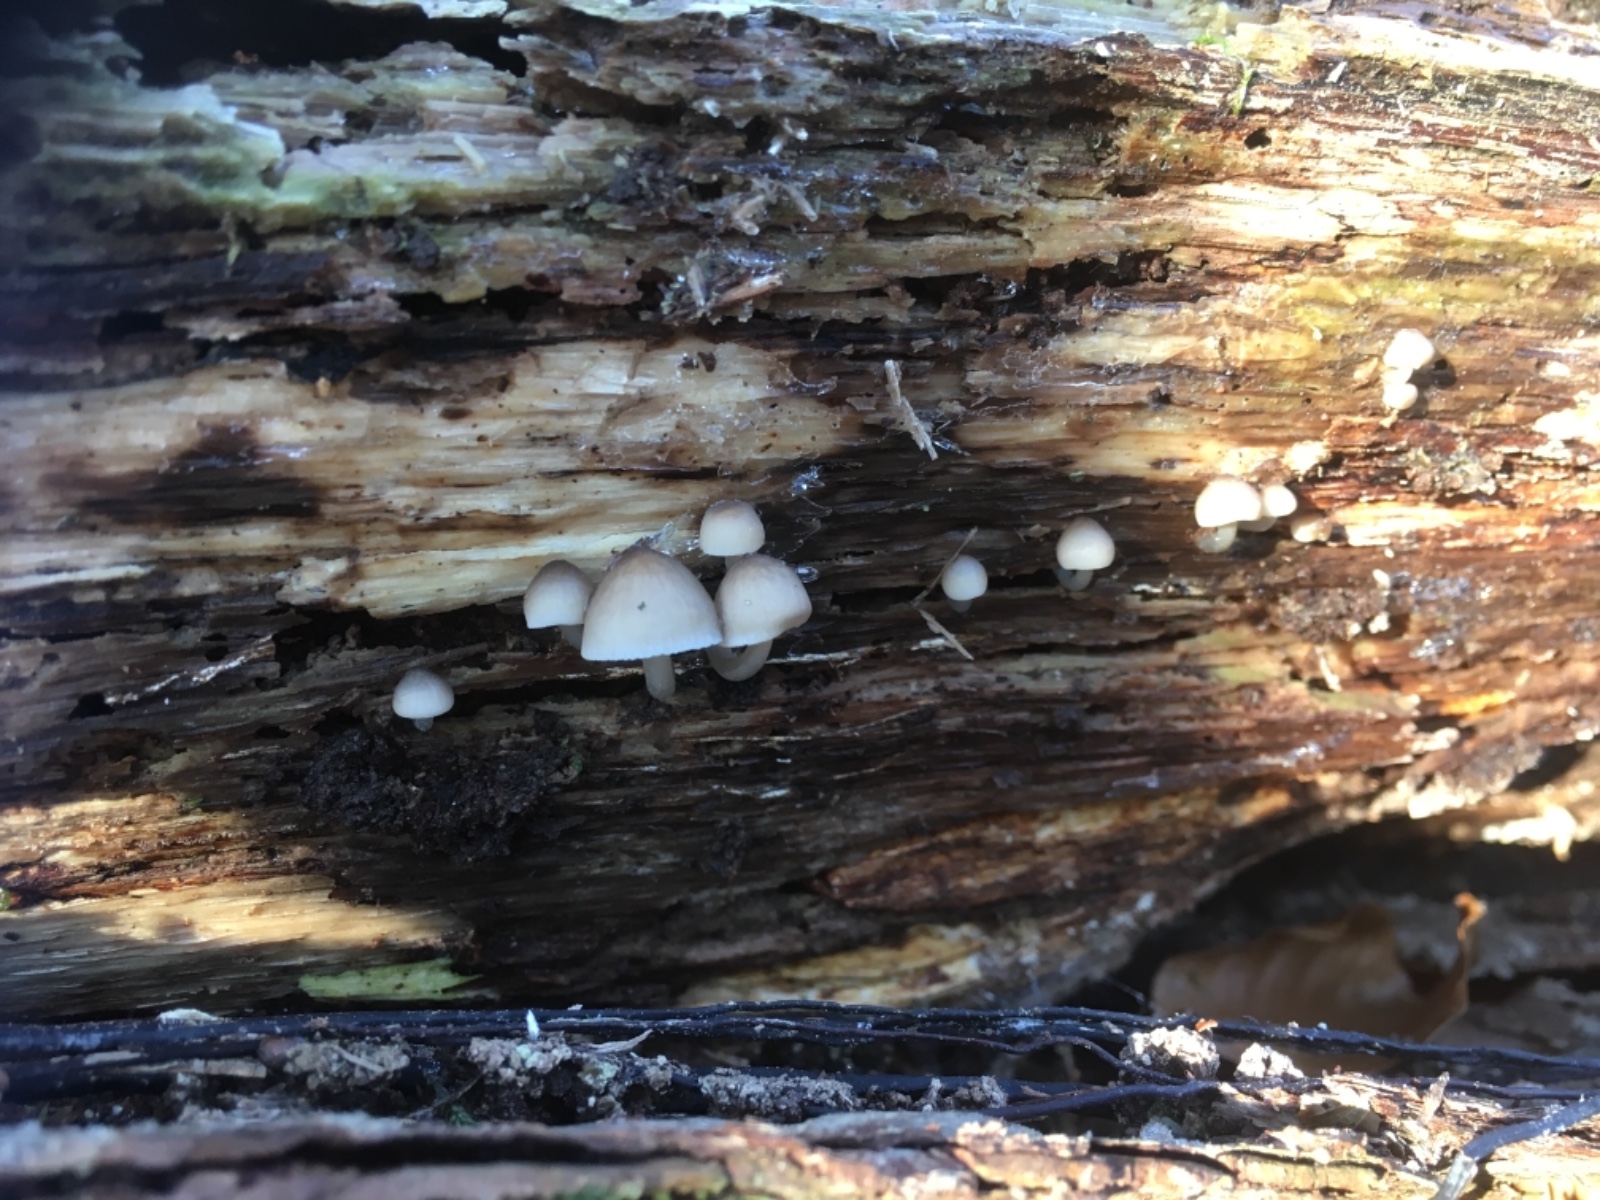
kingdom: Fungi
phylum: Basidiomycota
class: Agaricomycetes
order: Agaricales
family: Mycenaceae
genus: Mycena
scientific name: Mycena
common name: huesvamp
